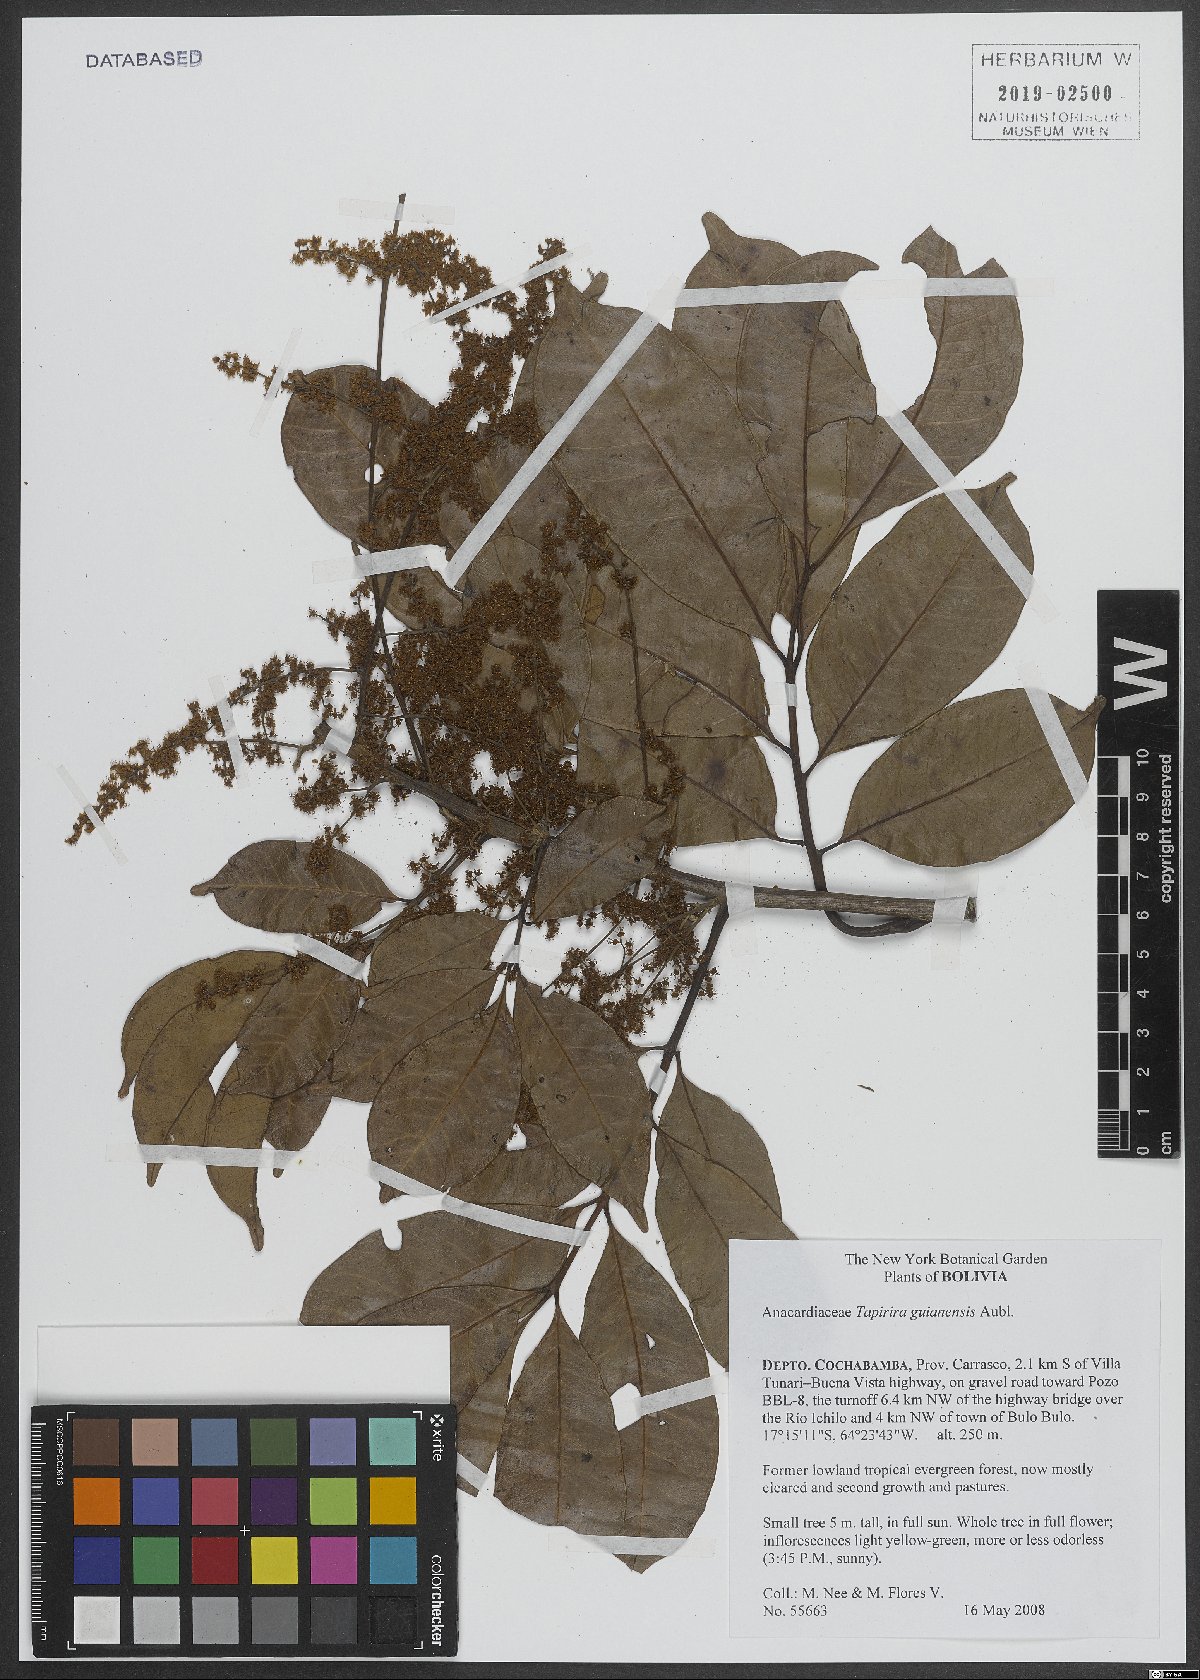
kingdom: Plantae
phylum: Tracheophyta
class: Magnoliopsida
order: Sapindales
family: Anacardiaceae
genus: Tapirira
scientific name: Tapirira guianensis
